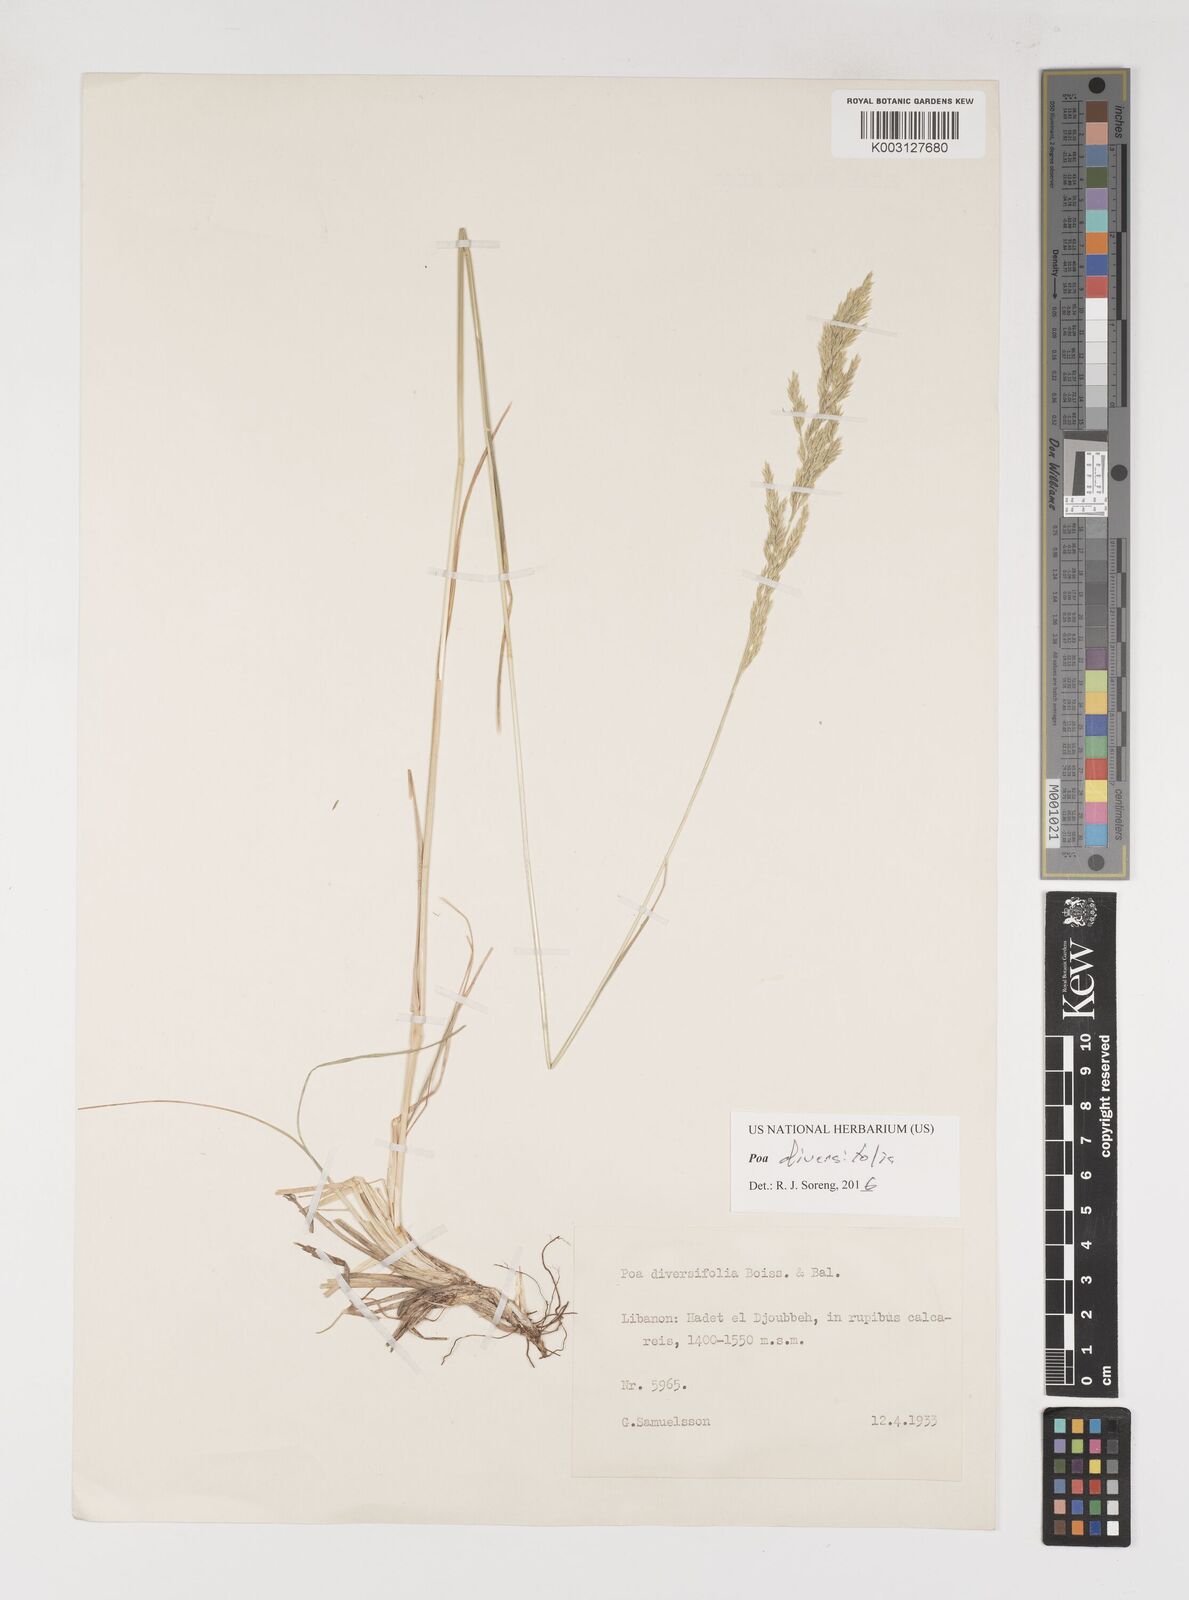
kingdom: Plantae
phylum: Tracheophyta
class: Liliopsida
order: Poales
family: Poaceae
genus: Poa
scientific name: Poa diversifolia
